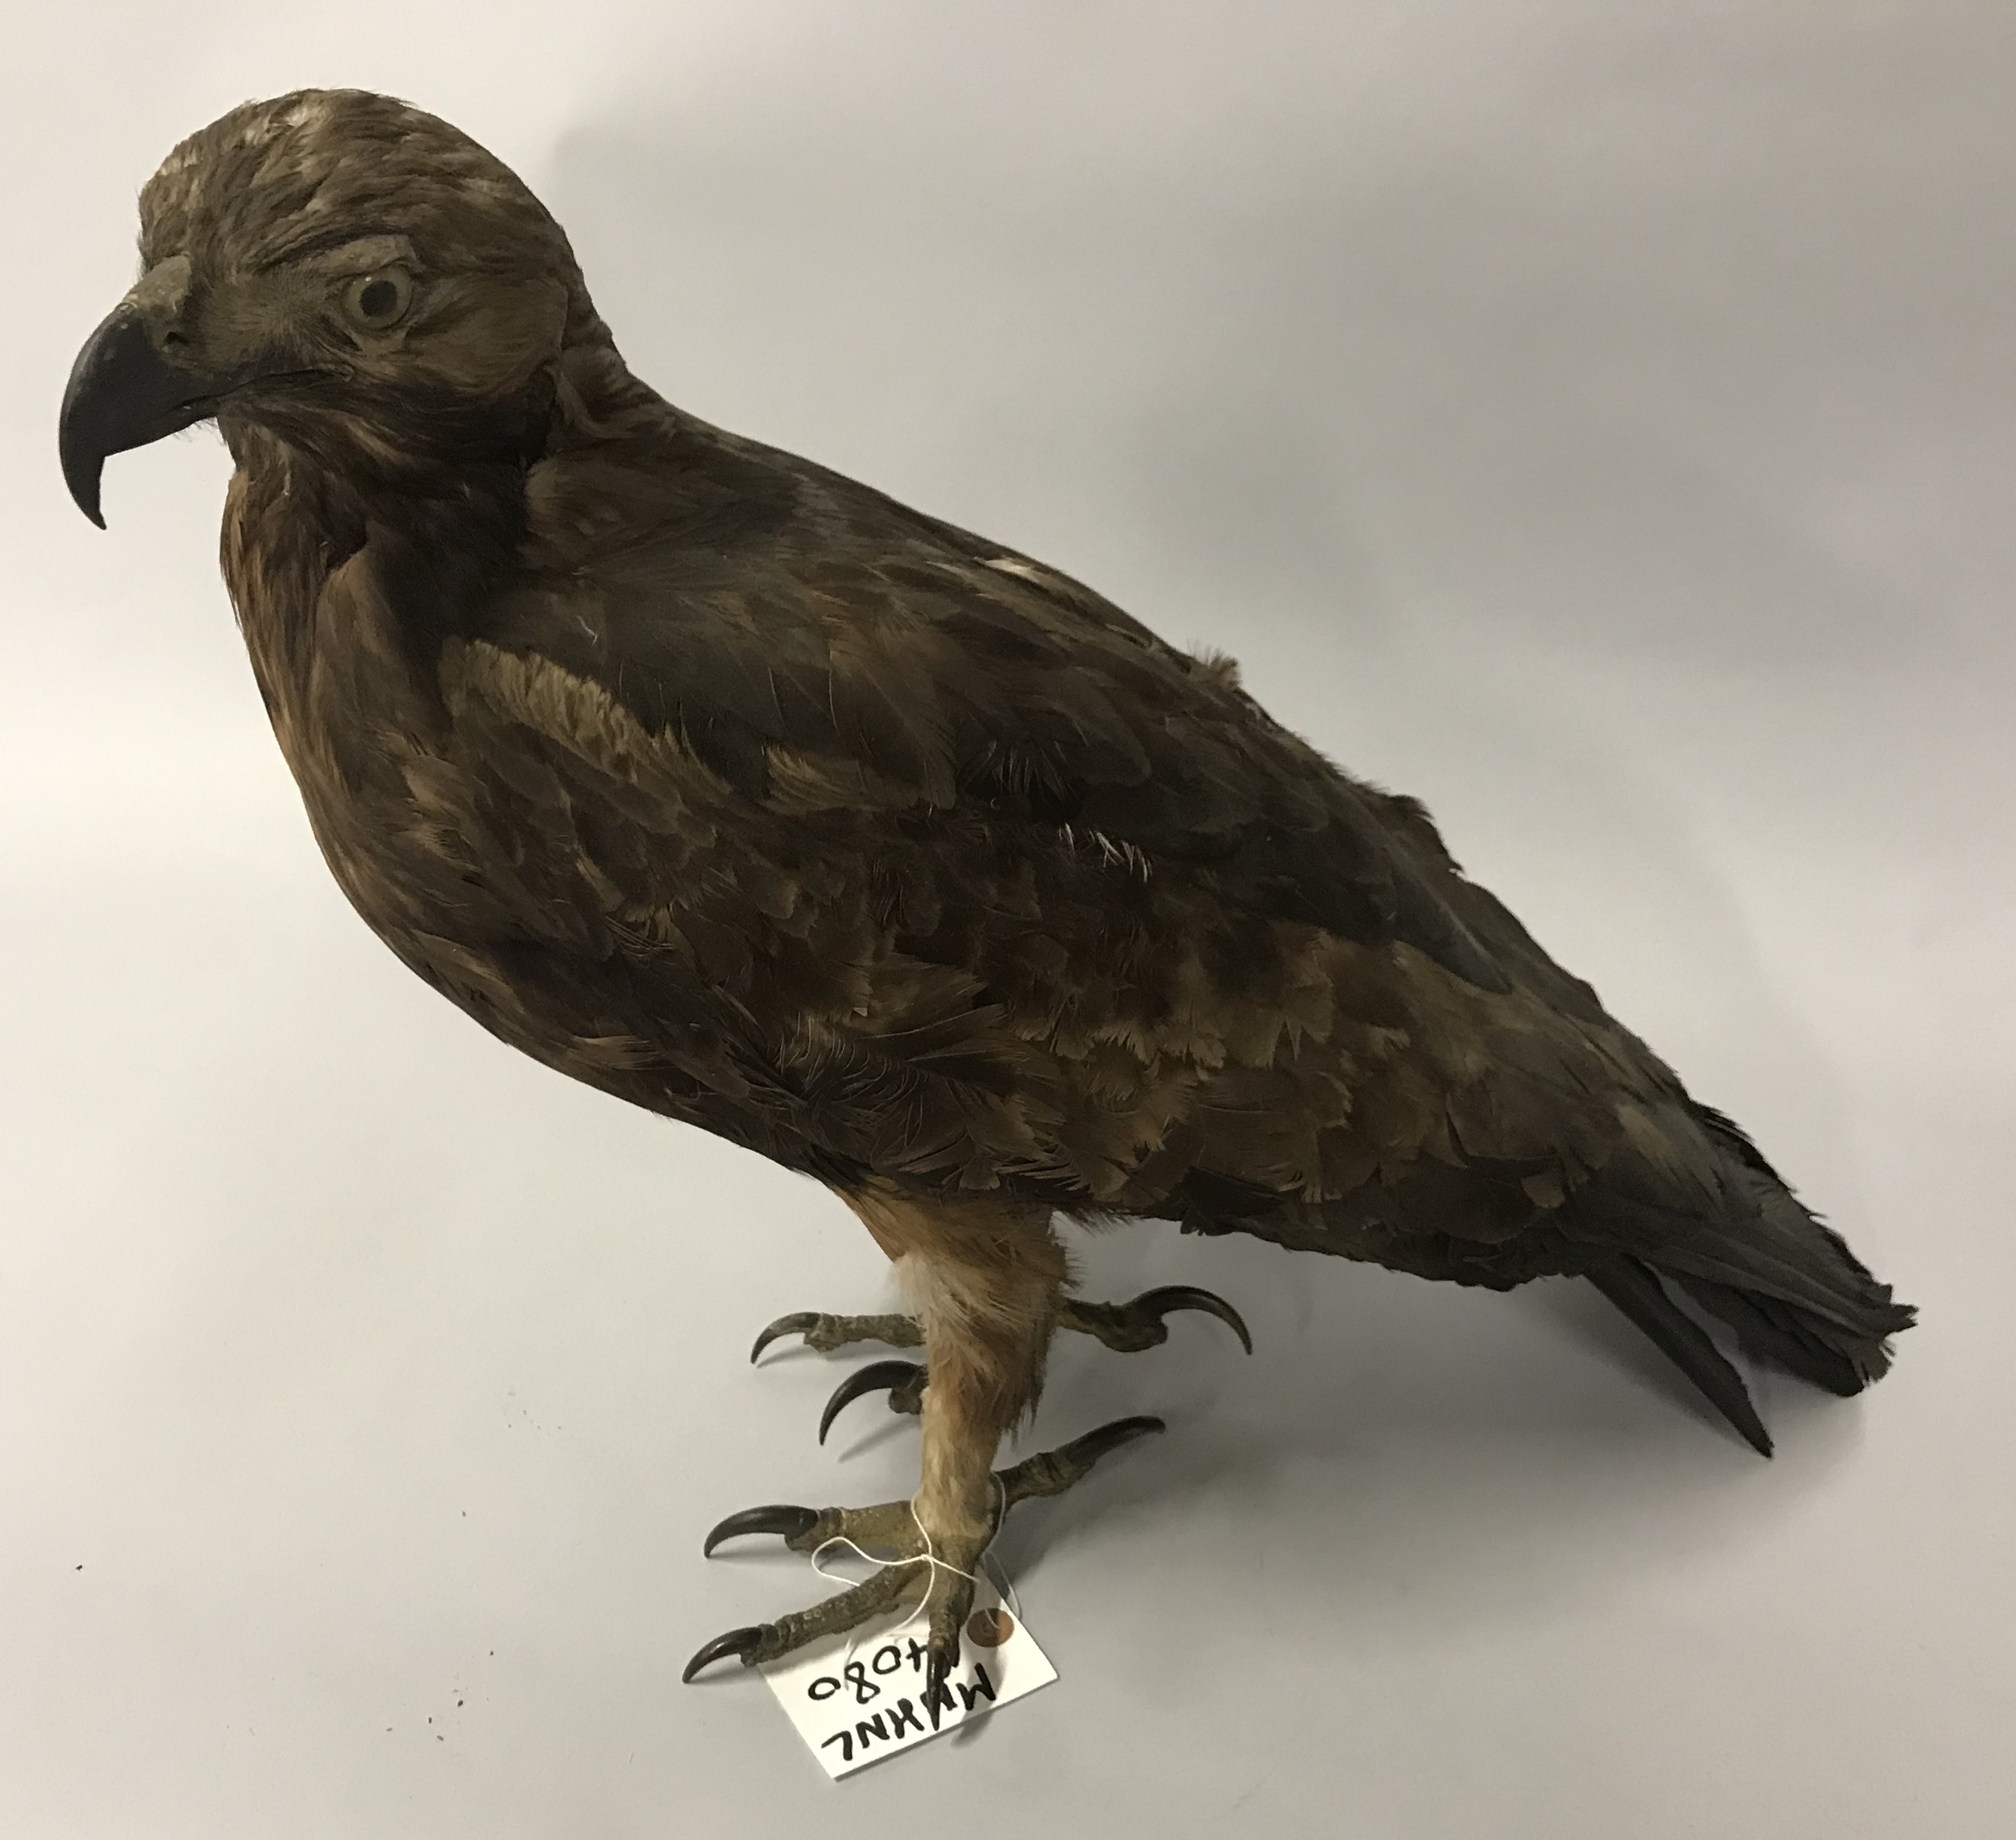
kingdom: Animalia
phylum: Chordata
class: Aves
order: Accipitriformes
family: Accipitridae
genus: Aquila
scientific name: Aquila chrysaetos
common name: Golden eagle
